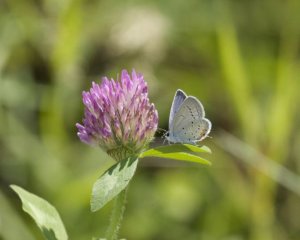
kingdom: Animalia
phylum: Arthropoda
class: Insecta
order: Lepidoptera
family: Lycaenidae
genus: Elkalyce
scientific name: Elkalyce comyntas
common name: Eastern Tailed-Blue
